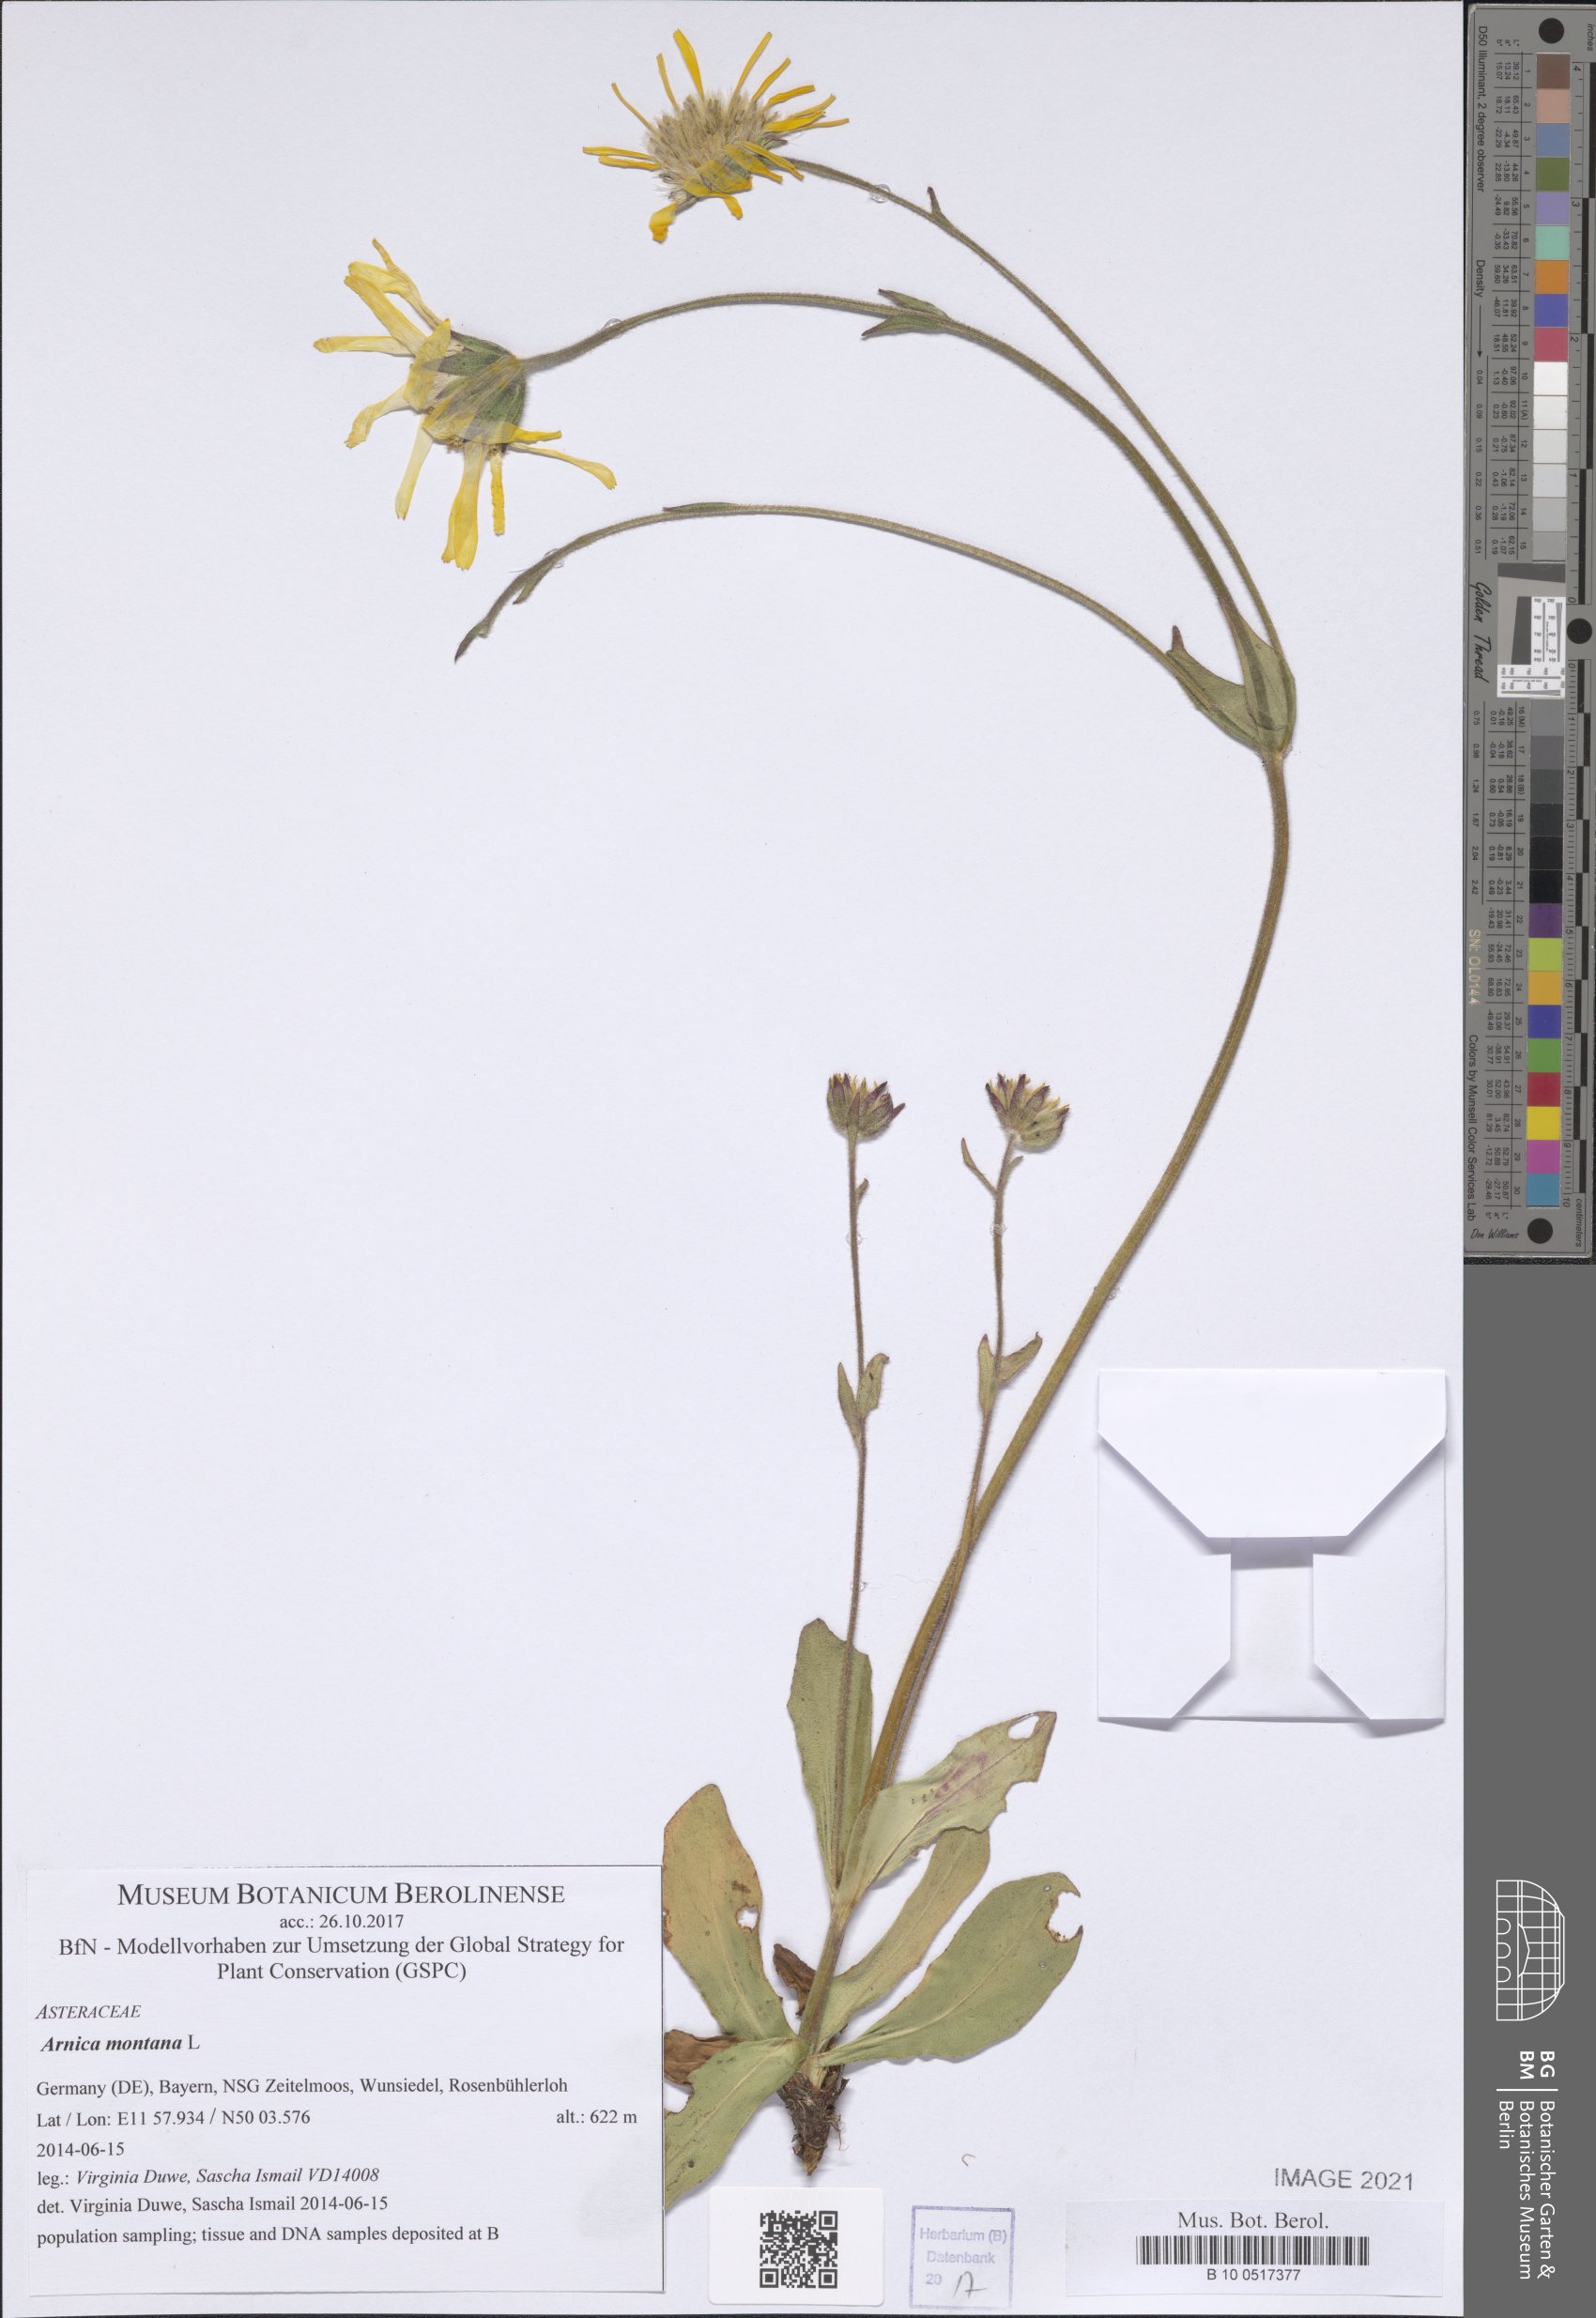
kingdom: Plantae
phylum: Tracheophyta
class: Magnoliopsida
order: Asterales
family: Asteraceae
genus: Arnica
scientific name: Arnica montana
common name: Leopard's bane
